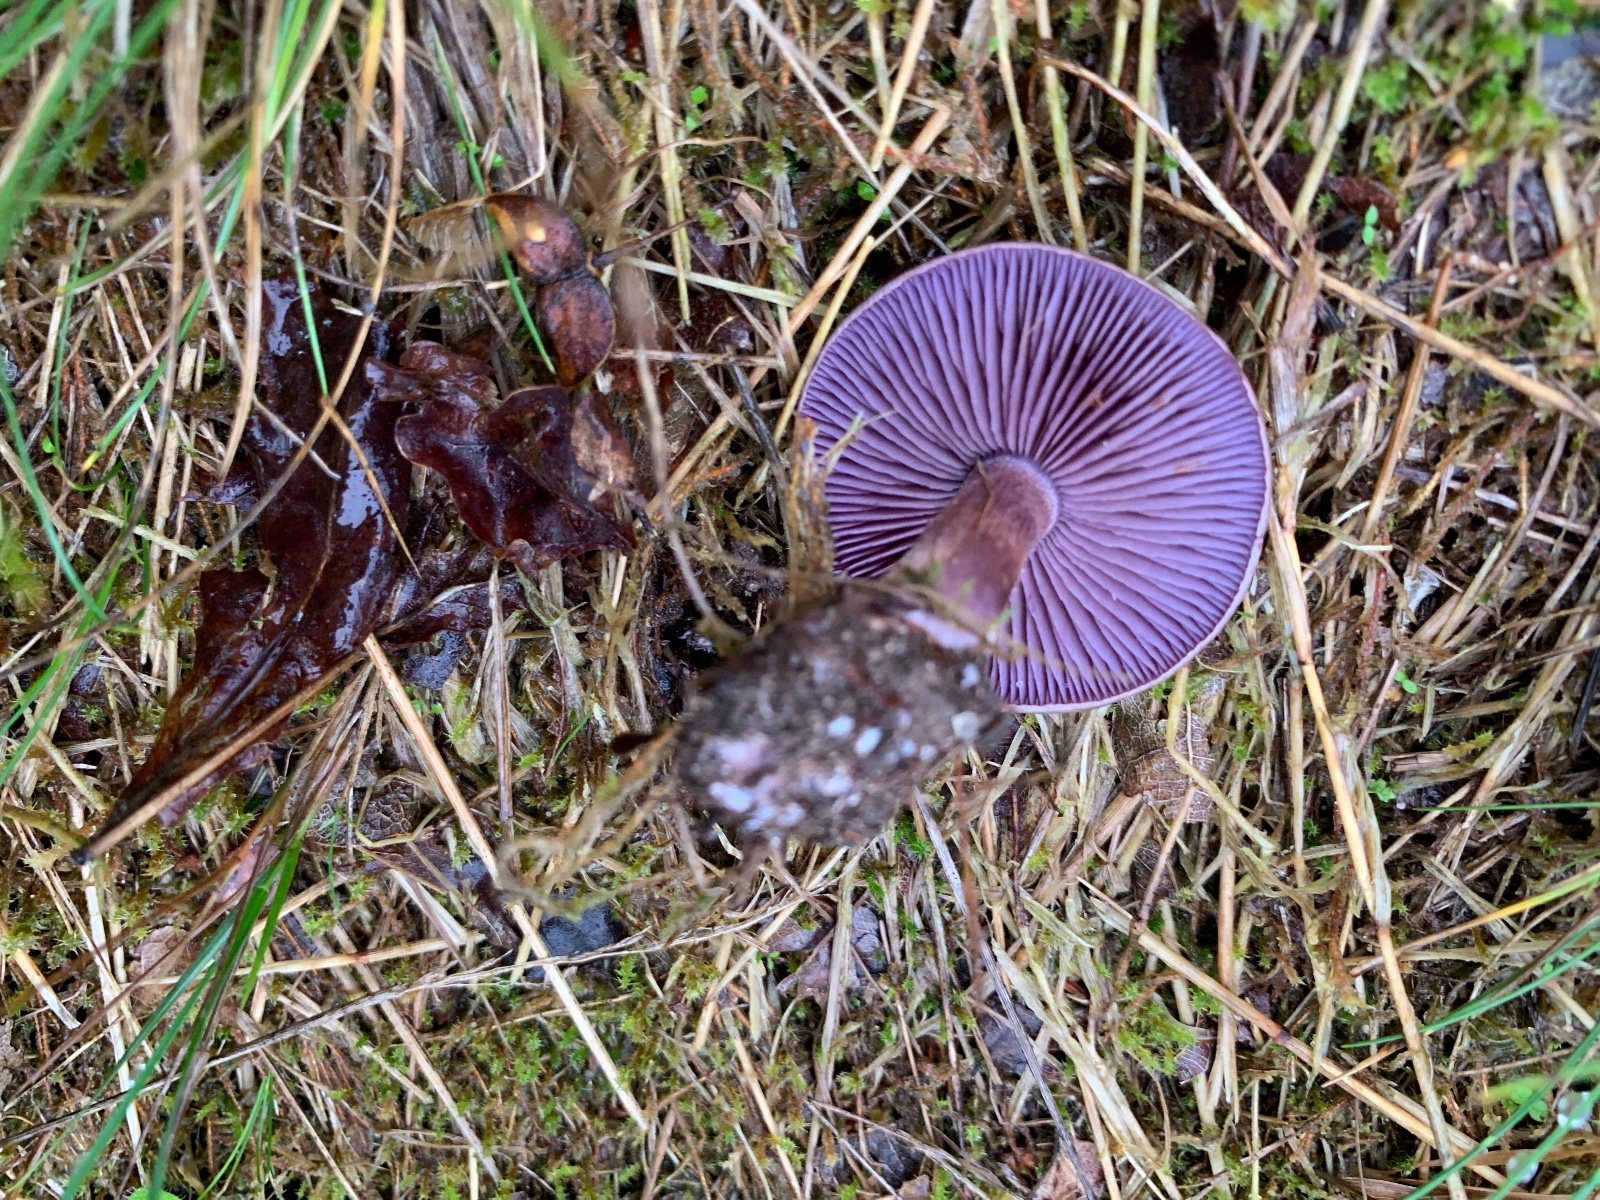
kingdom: Fungi
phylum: Basidiomycota
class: Agaricomycetes
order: Agaricales
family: Cortinariaceae
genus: Cortinarius
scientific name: Cortinarius
